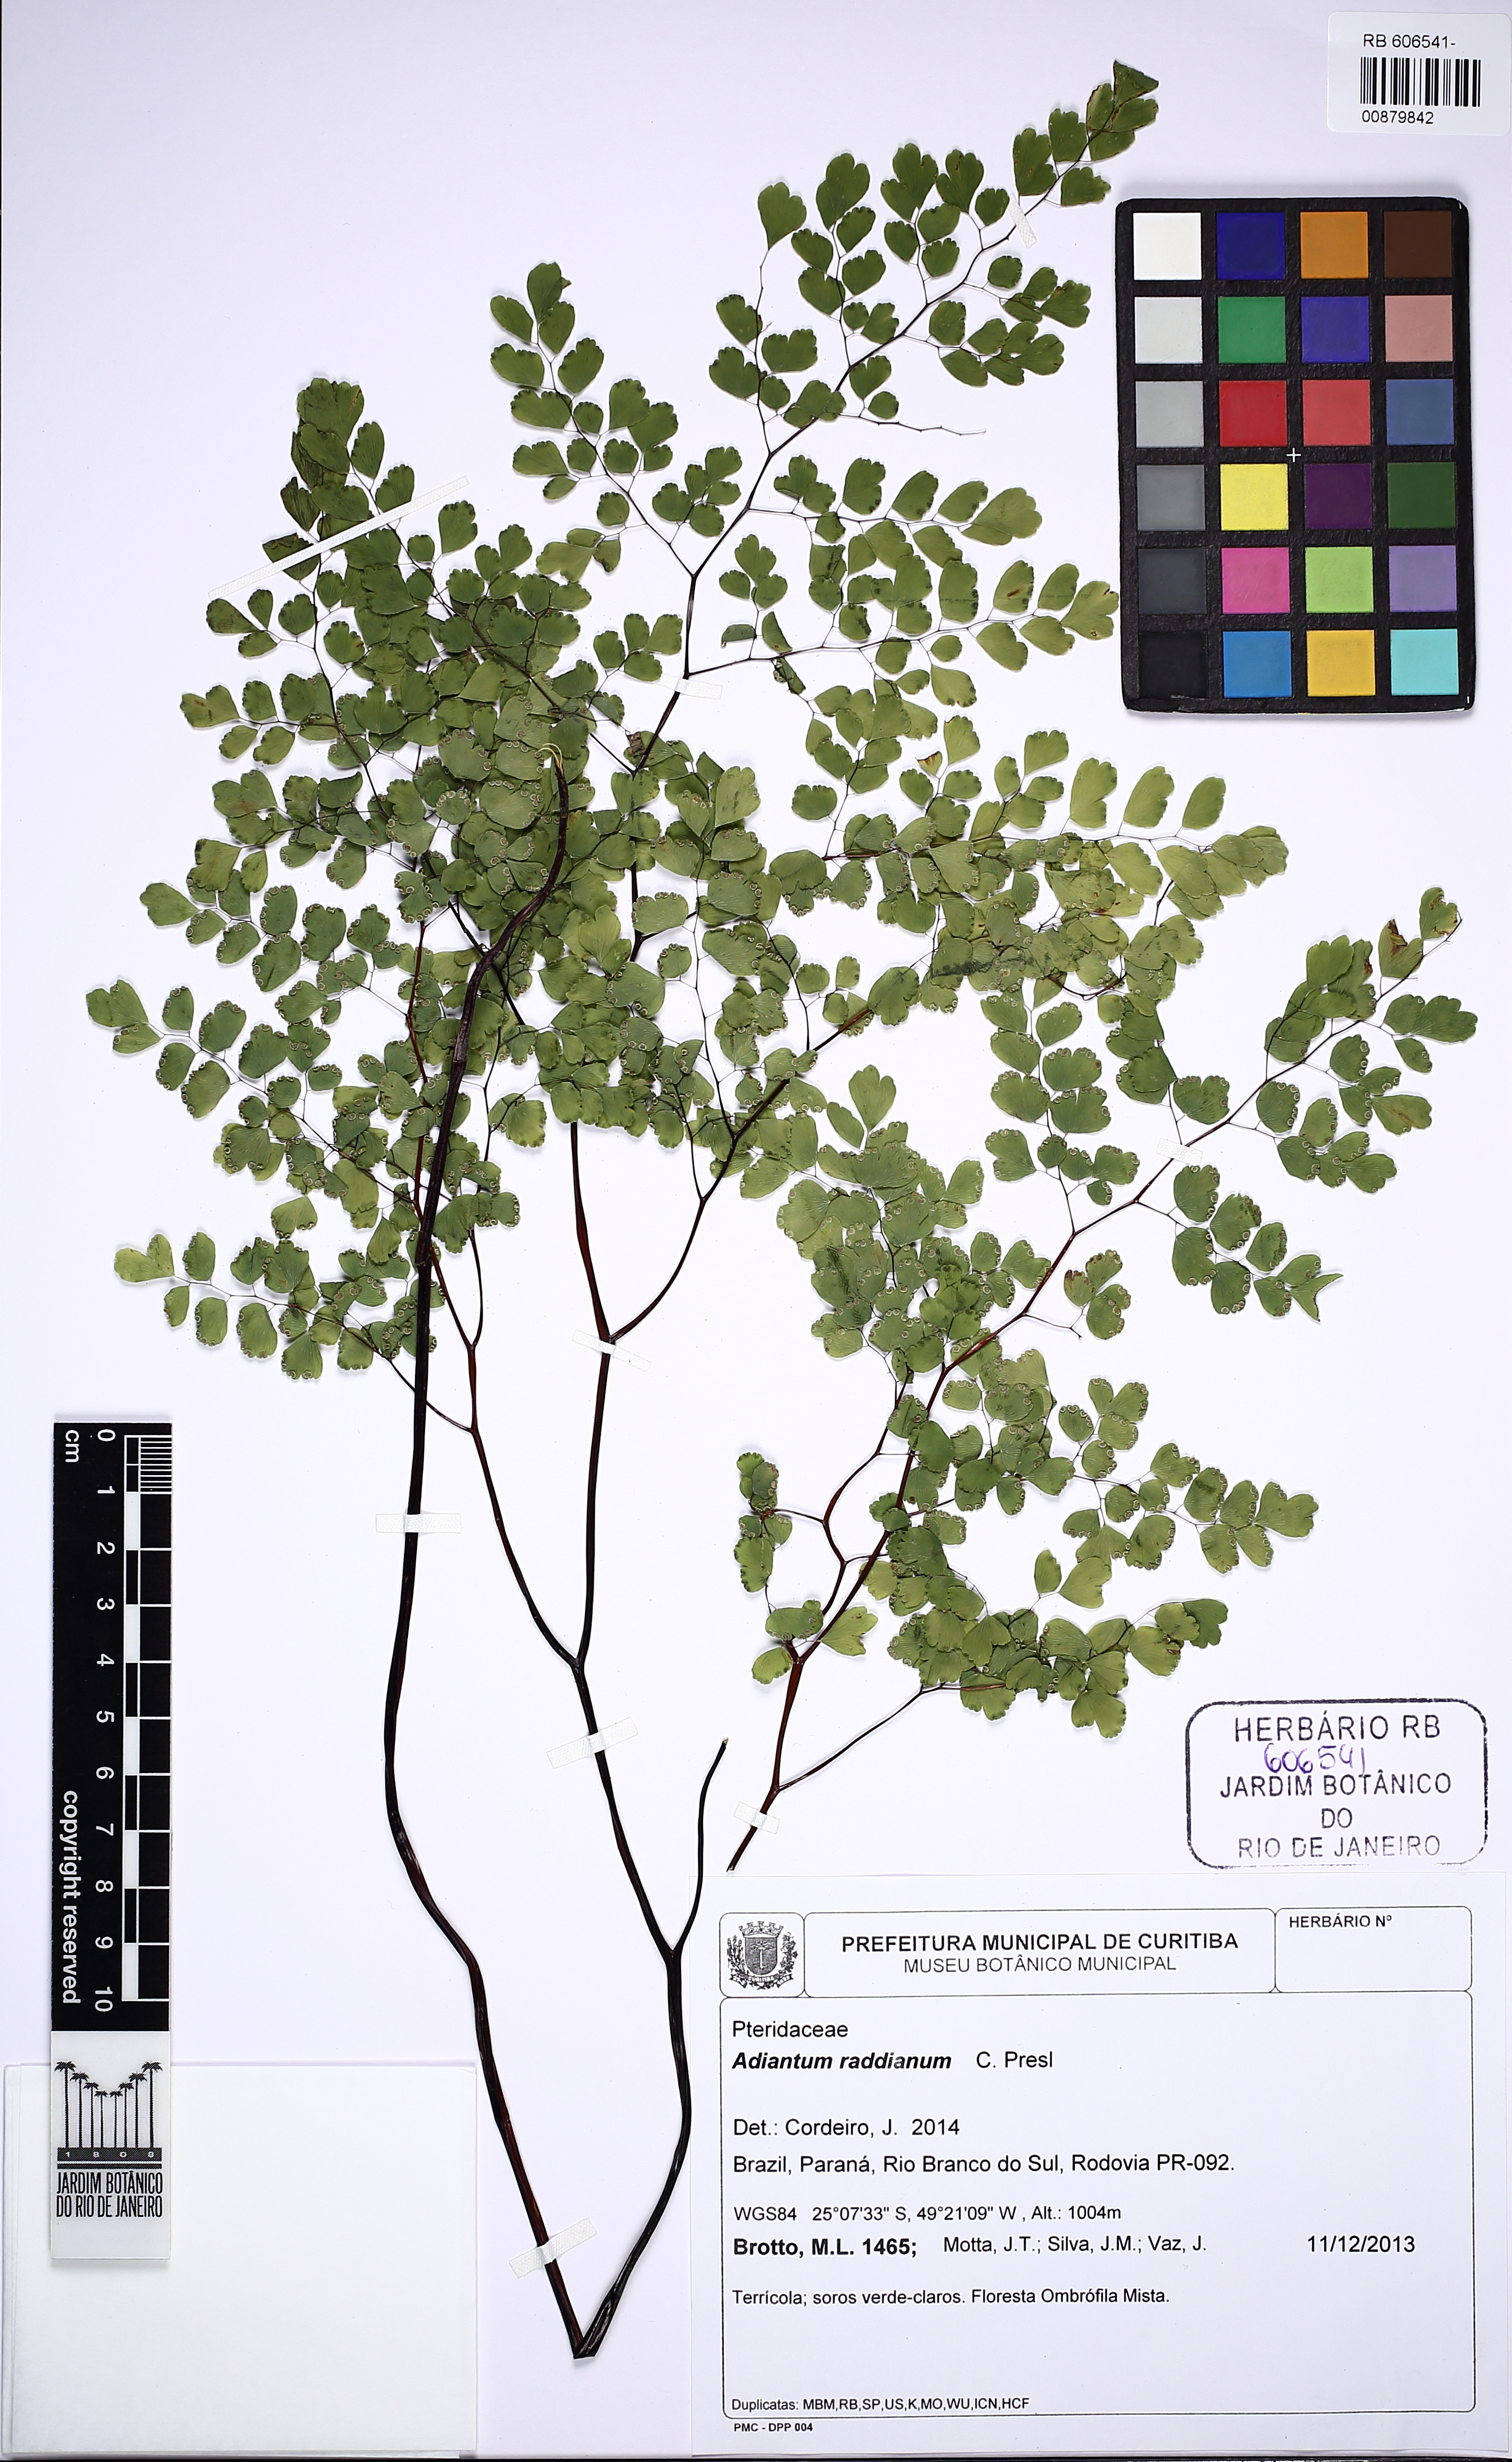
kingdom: Plantae
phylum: Tracheophyta
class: Polypodiopsida
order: Polypodiales
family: Pteridaceae
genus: Adiantum
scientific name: Adiantum raddianum
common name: Delta maidenhair fern
